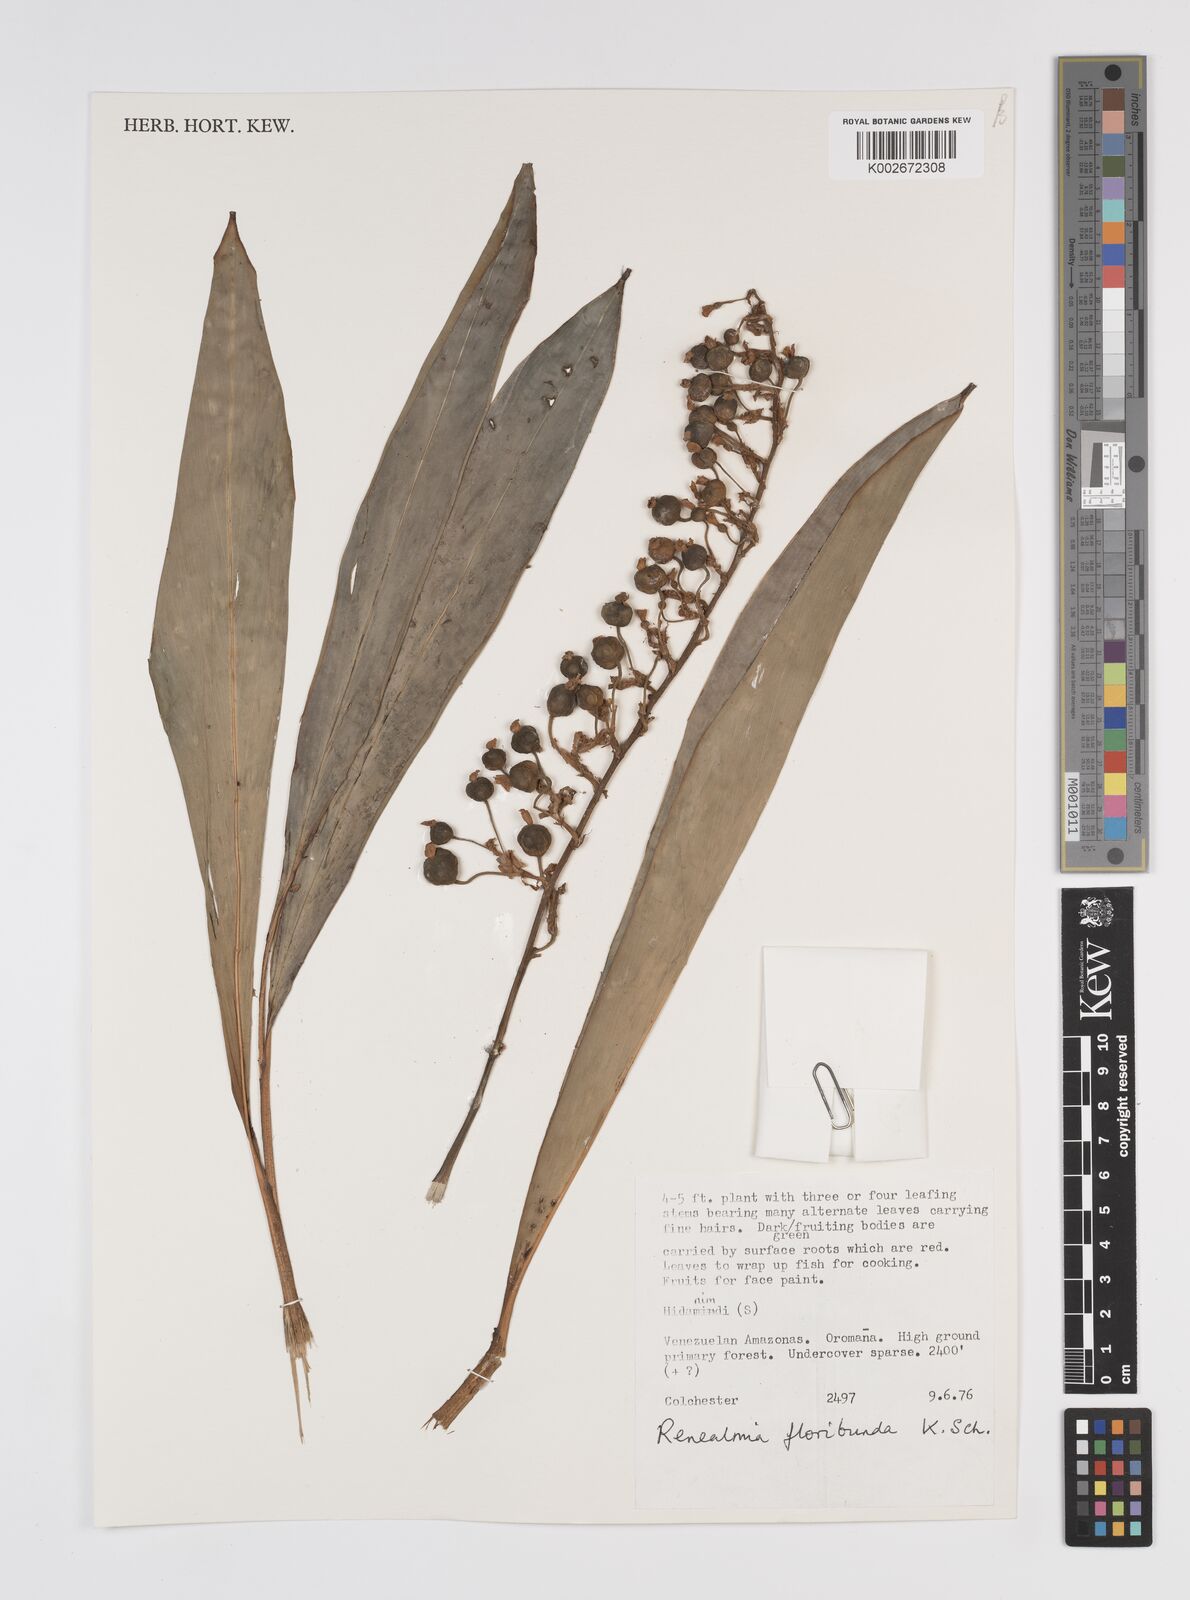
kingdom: Plantae
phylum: Tracheophyta
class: Liliopsida
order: Zingiberales
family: Zingiberaceae
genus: Renealmia
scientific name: Renealmia floribunda
